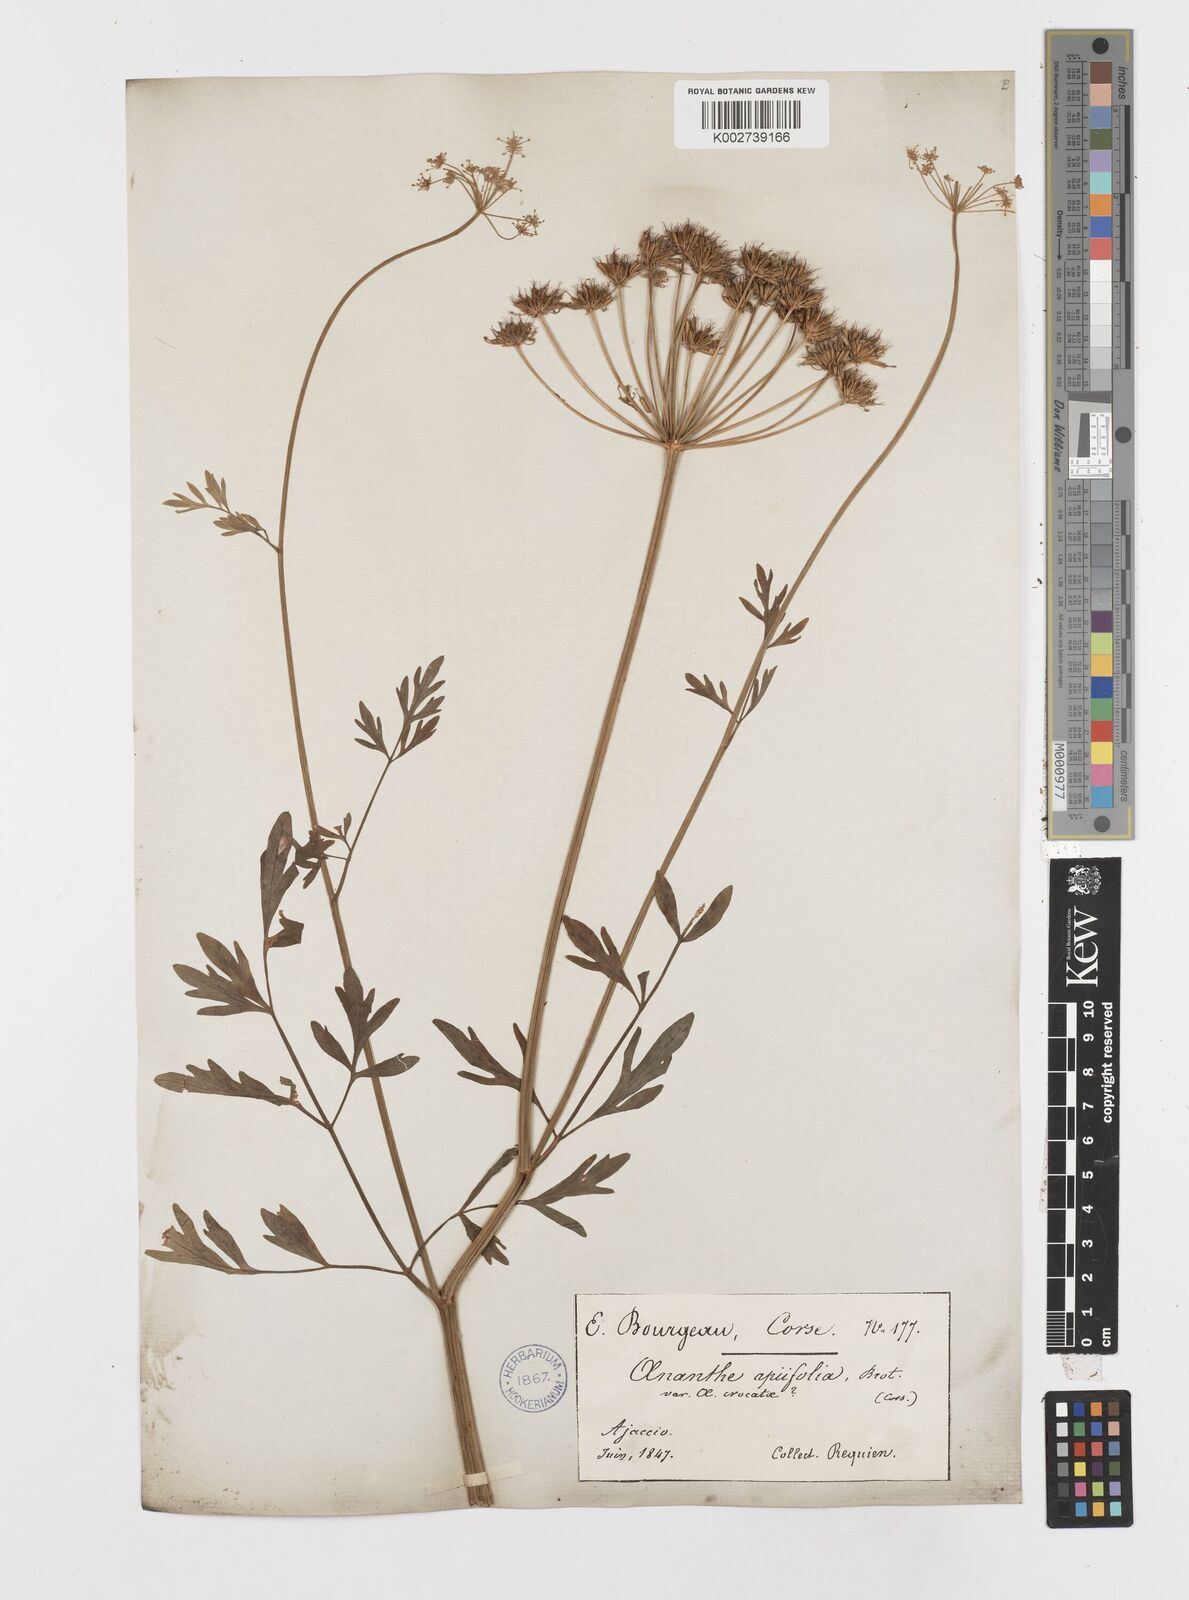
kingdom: Plantae
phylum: Tracheophyta
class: Magnoliopsida
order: Apiales
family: Apiaceae
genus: Oenanthe
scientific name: Oenanthe crocata
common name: Hemlock water-dropwort
